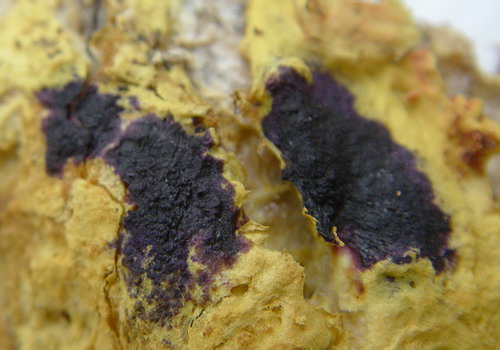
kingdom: Fungi
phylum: Ascomycota
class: Sordariomycetes
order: Hypocreales
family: Hypocreaceae
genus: Hypomyces
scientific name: Hypomyces aurantius
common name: almindelig snylteskorpe
